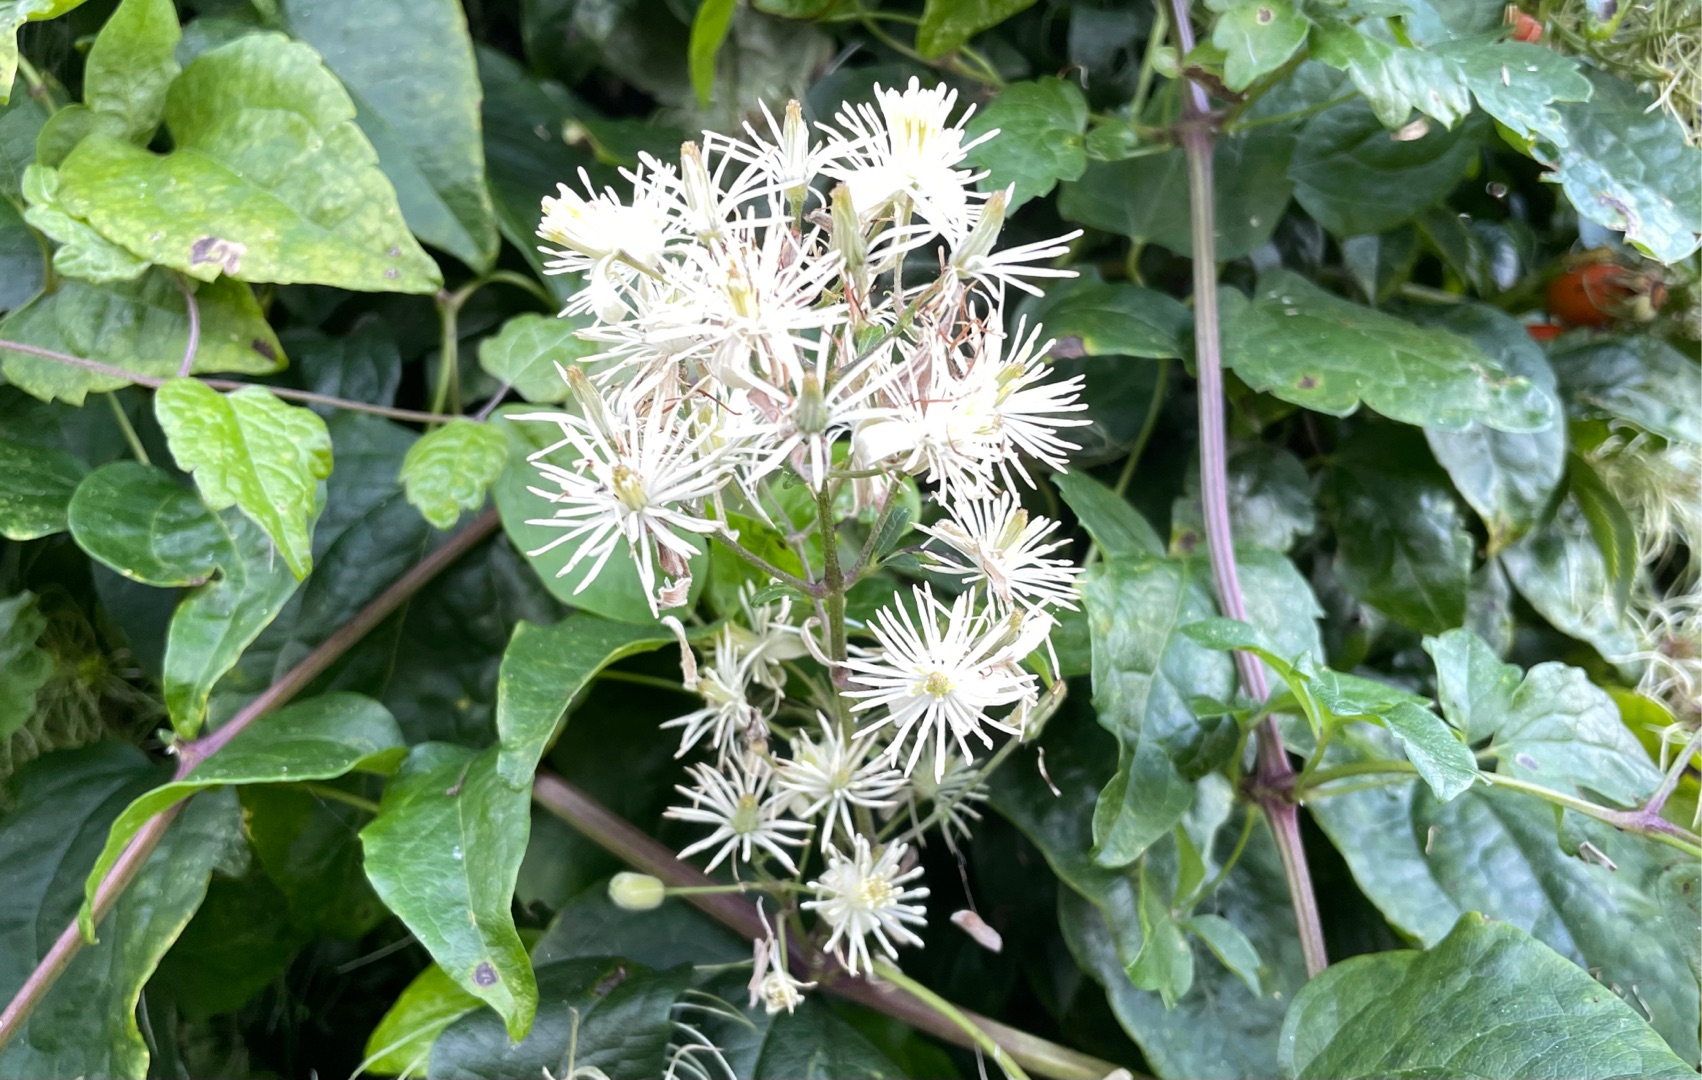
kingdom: Plantae
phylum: Tracheophyta
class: Magnoliopsida
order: Ranunculales
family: Ranunculaceae
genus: Clematis
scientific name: Clematis vitalba
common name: Skovranke
